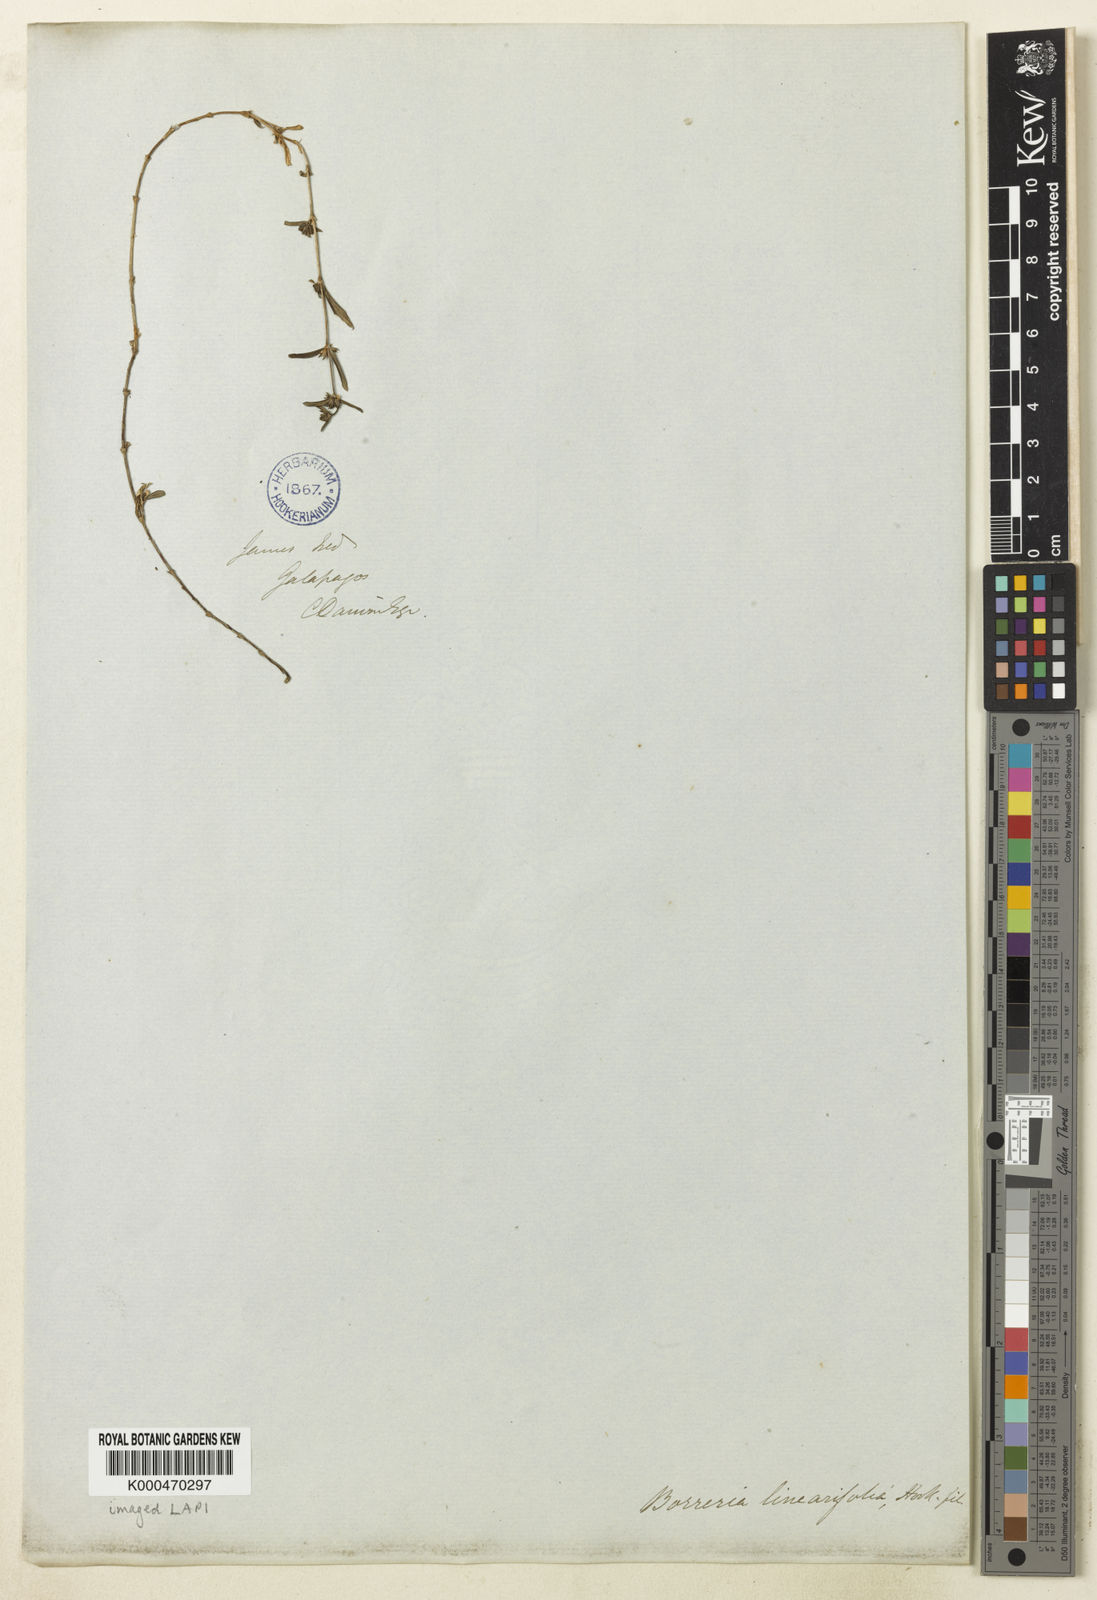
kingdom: Plantae
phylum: Tracheophyta
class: Magnoliopsida
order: Gentianales
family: Rubiaceae
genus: Spermacoce
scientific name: Spermacoce linearifolia
